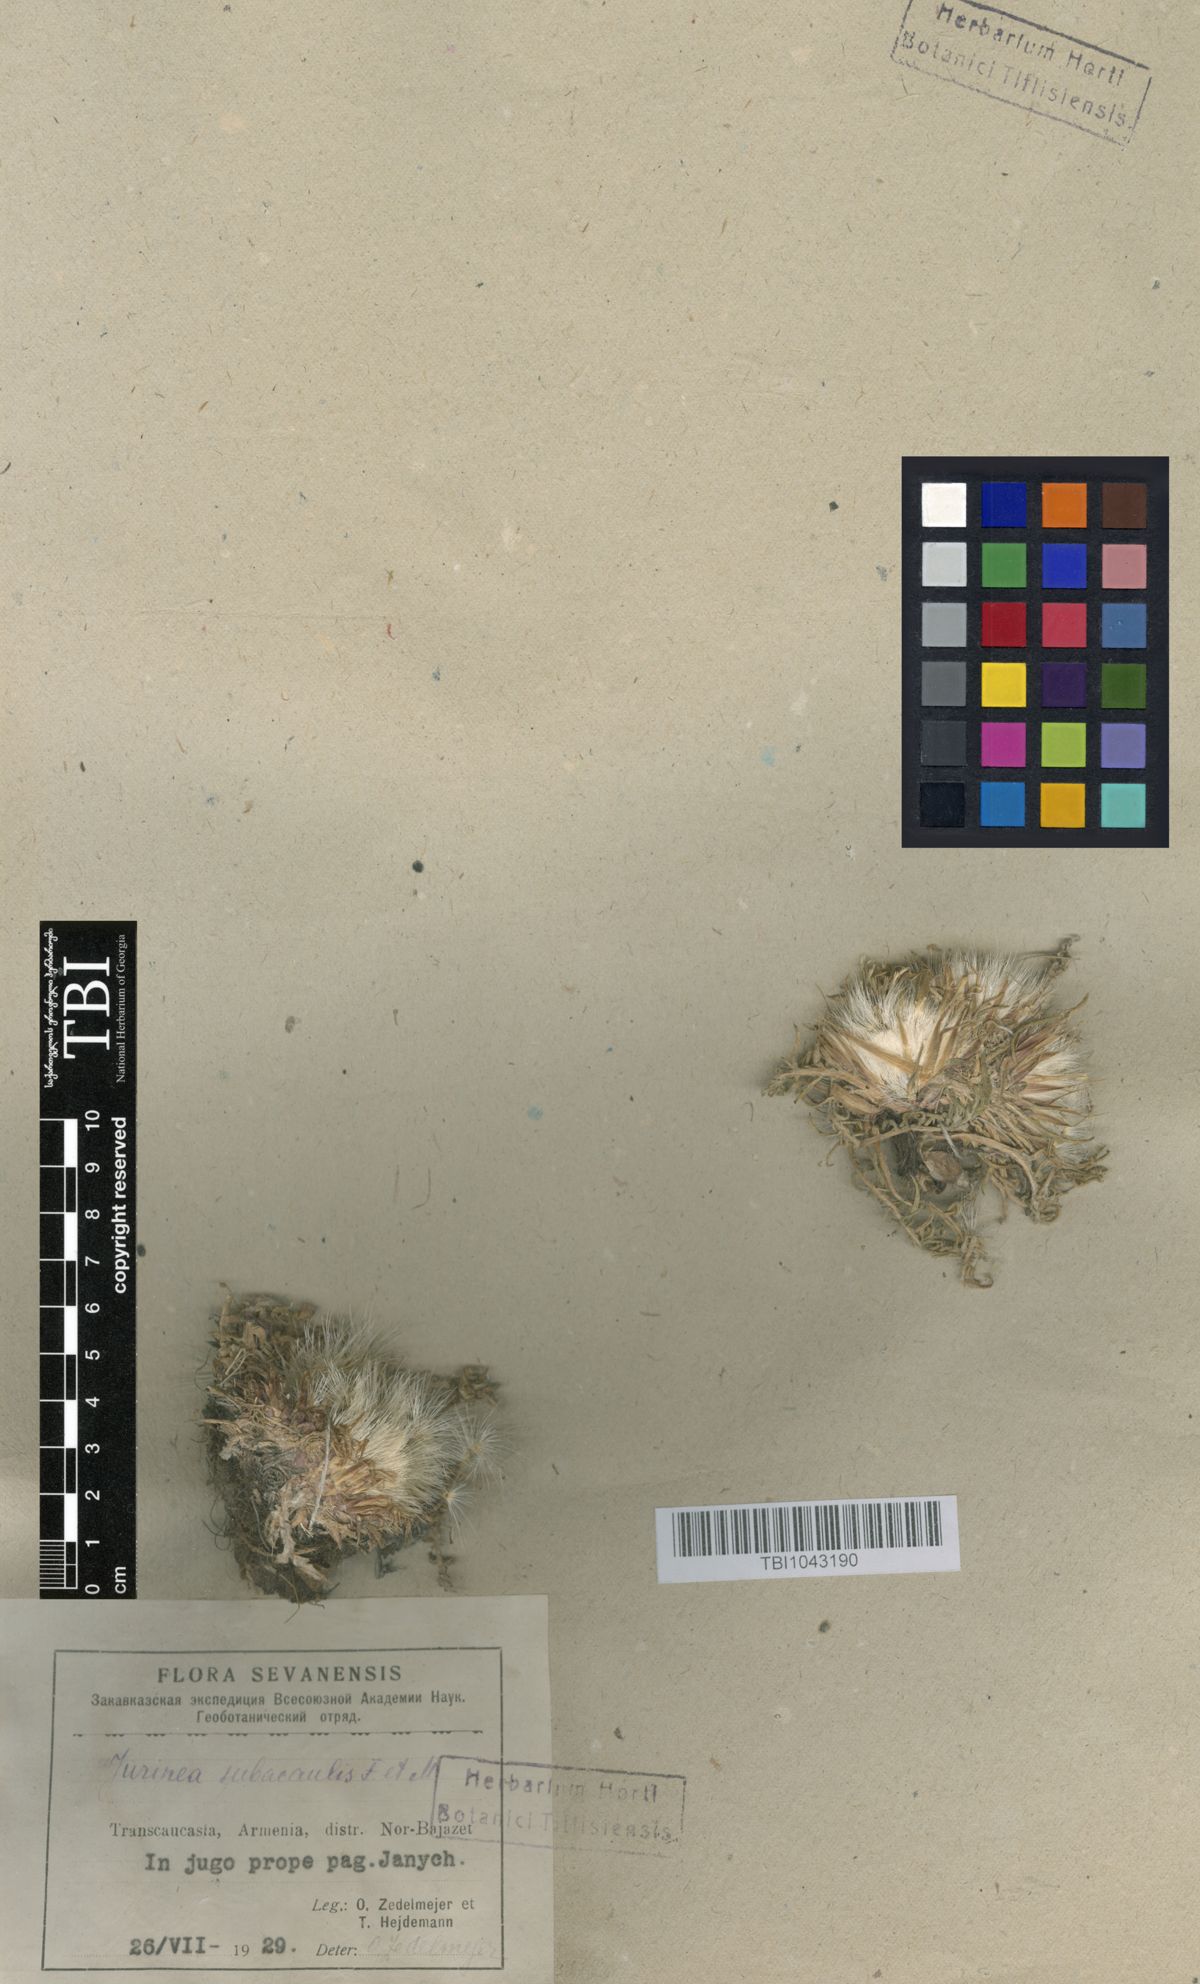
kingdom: Plantae
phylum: Tracheophyta
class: Magnoliopsida
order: Asterales
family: Asteraceae
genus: Jurinea
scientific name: Jurinea moschus
